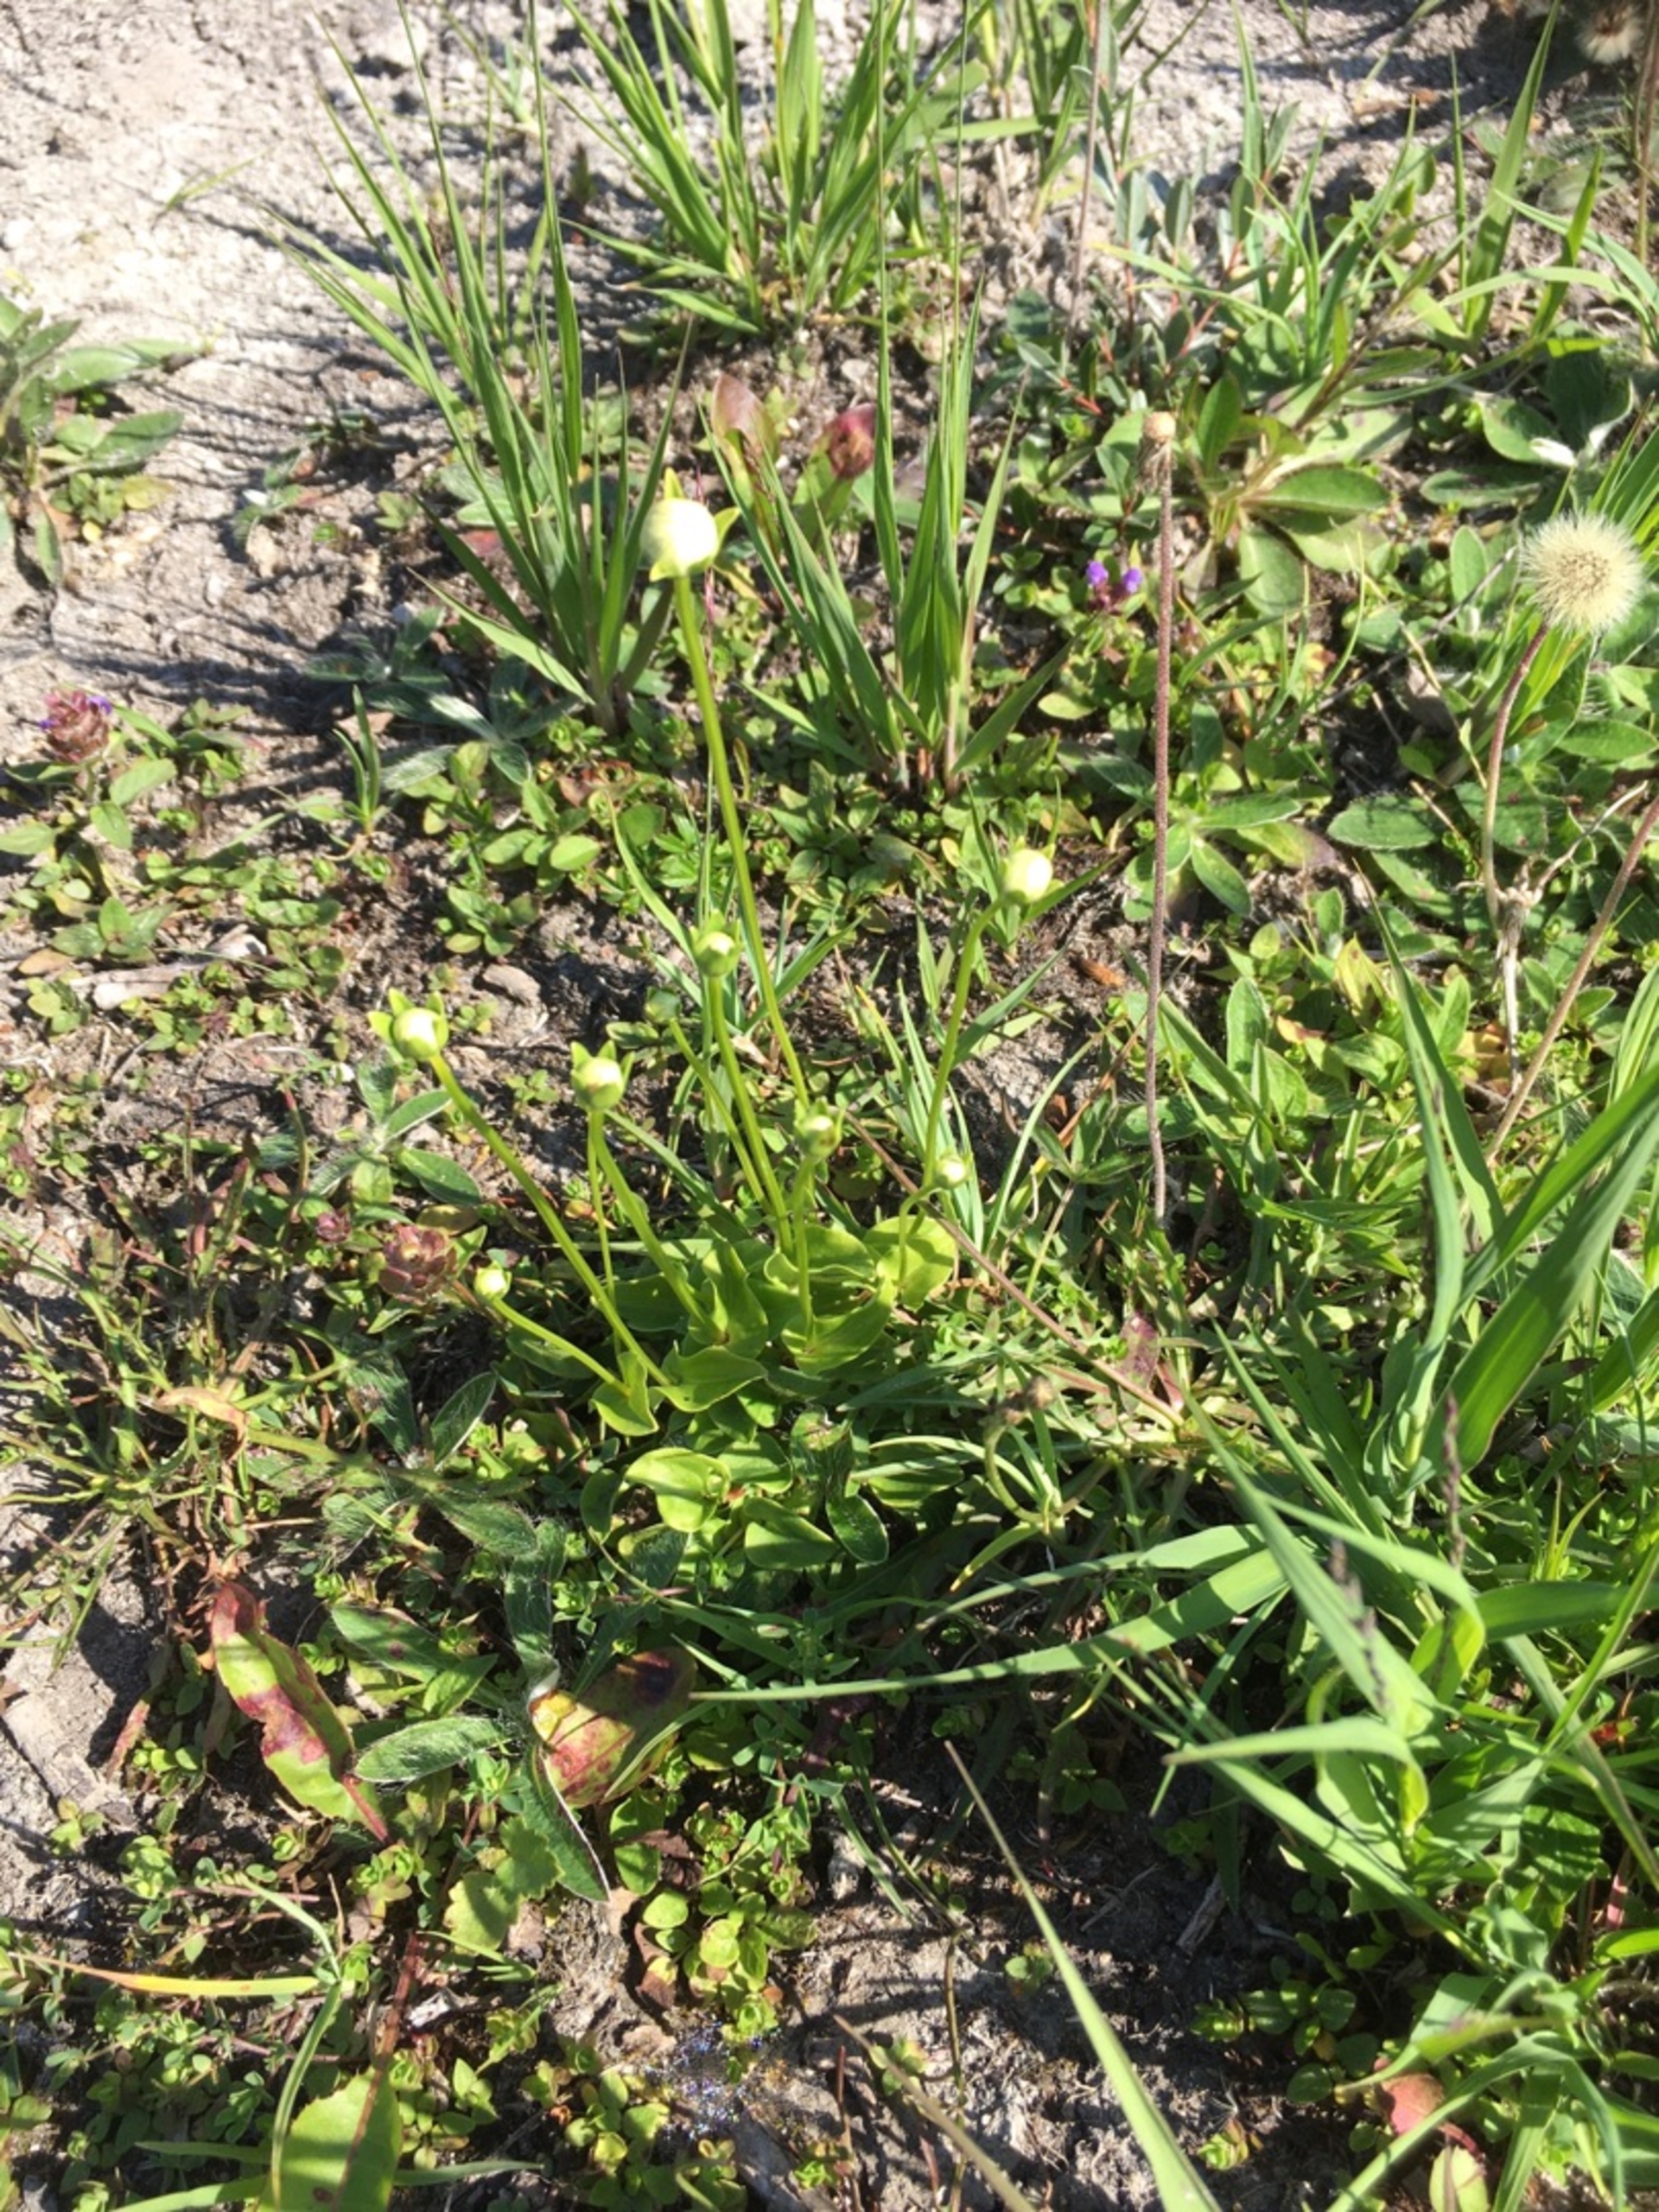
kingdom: Plantae
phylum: Tracheophyta
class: Magnoliopsida
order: Celastrales
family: Parnassiaceae
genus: Parnassia
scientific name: Parnassia palustris
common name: Leverurt
